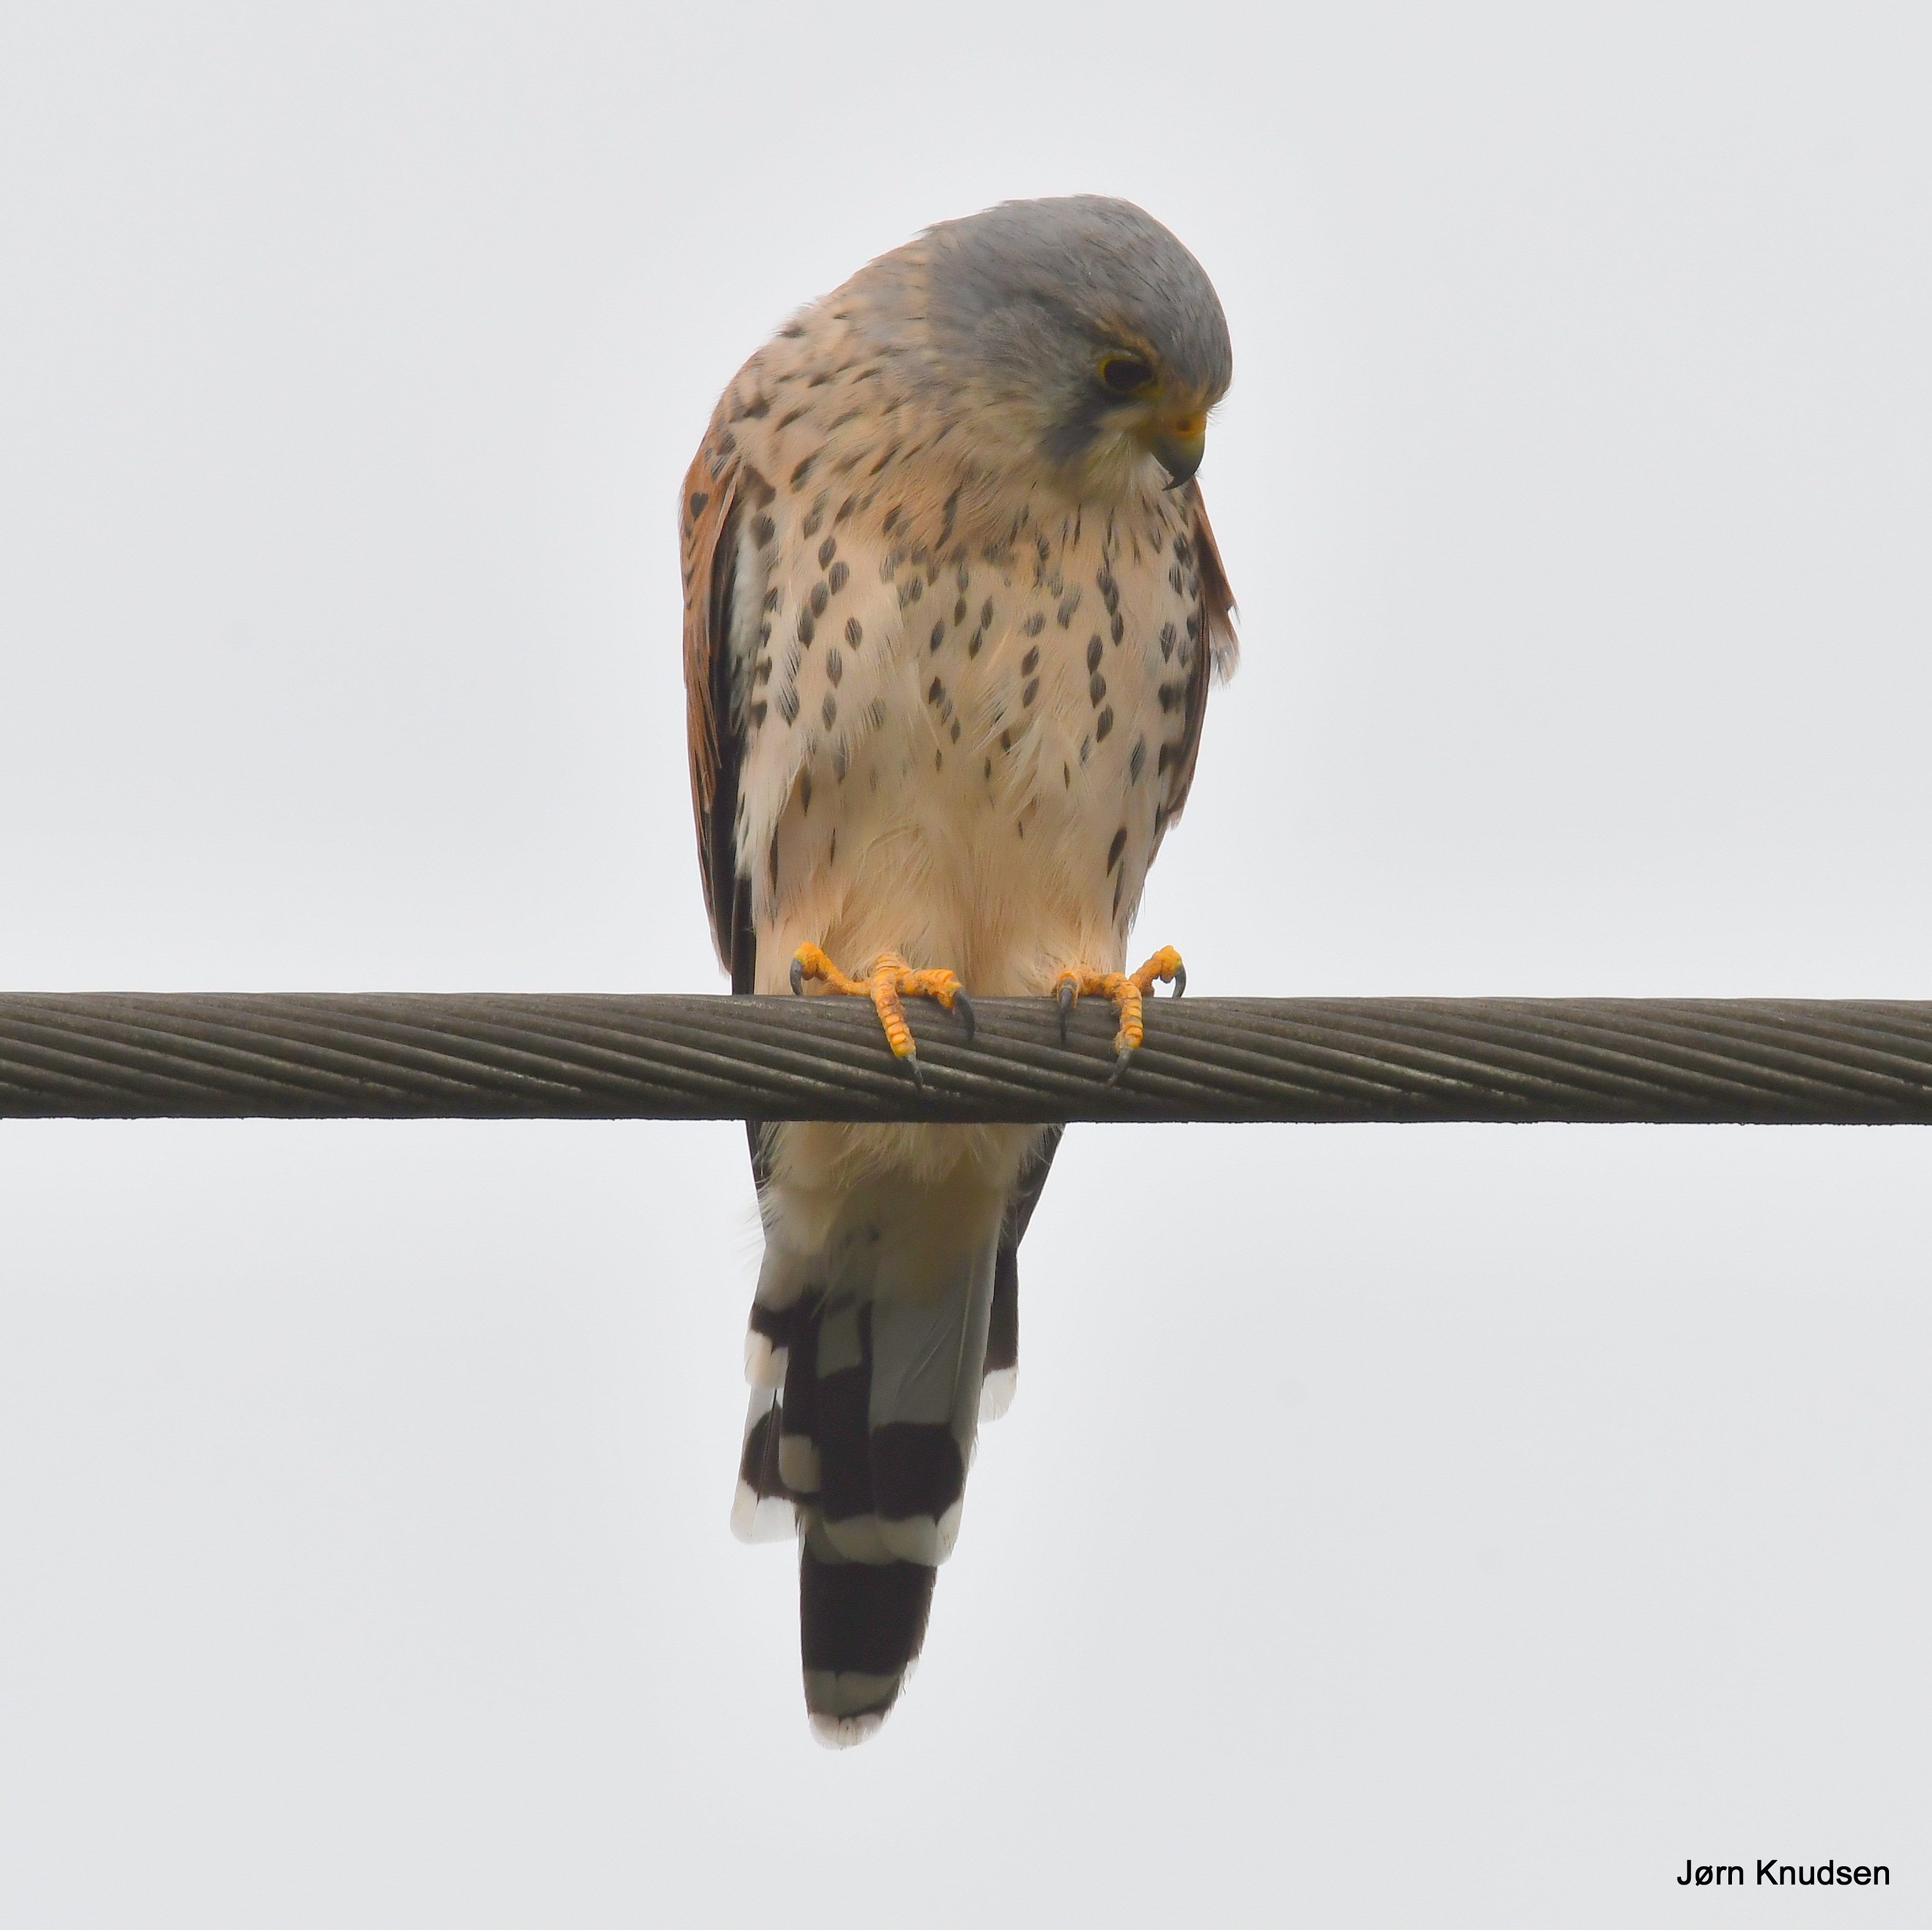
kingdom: Animalia
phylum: Chordata
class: Aves
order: Falconiformes
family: Falconidae
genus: Falco
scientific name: Falco tinnunculus
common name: Tårnfalk
